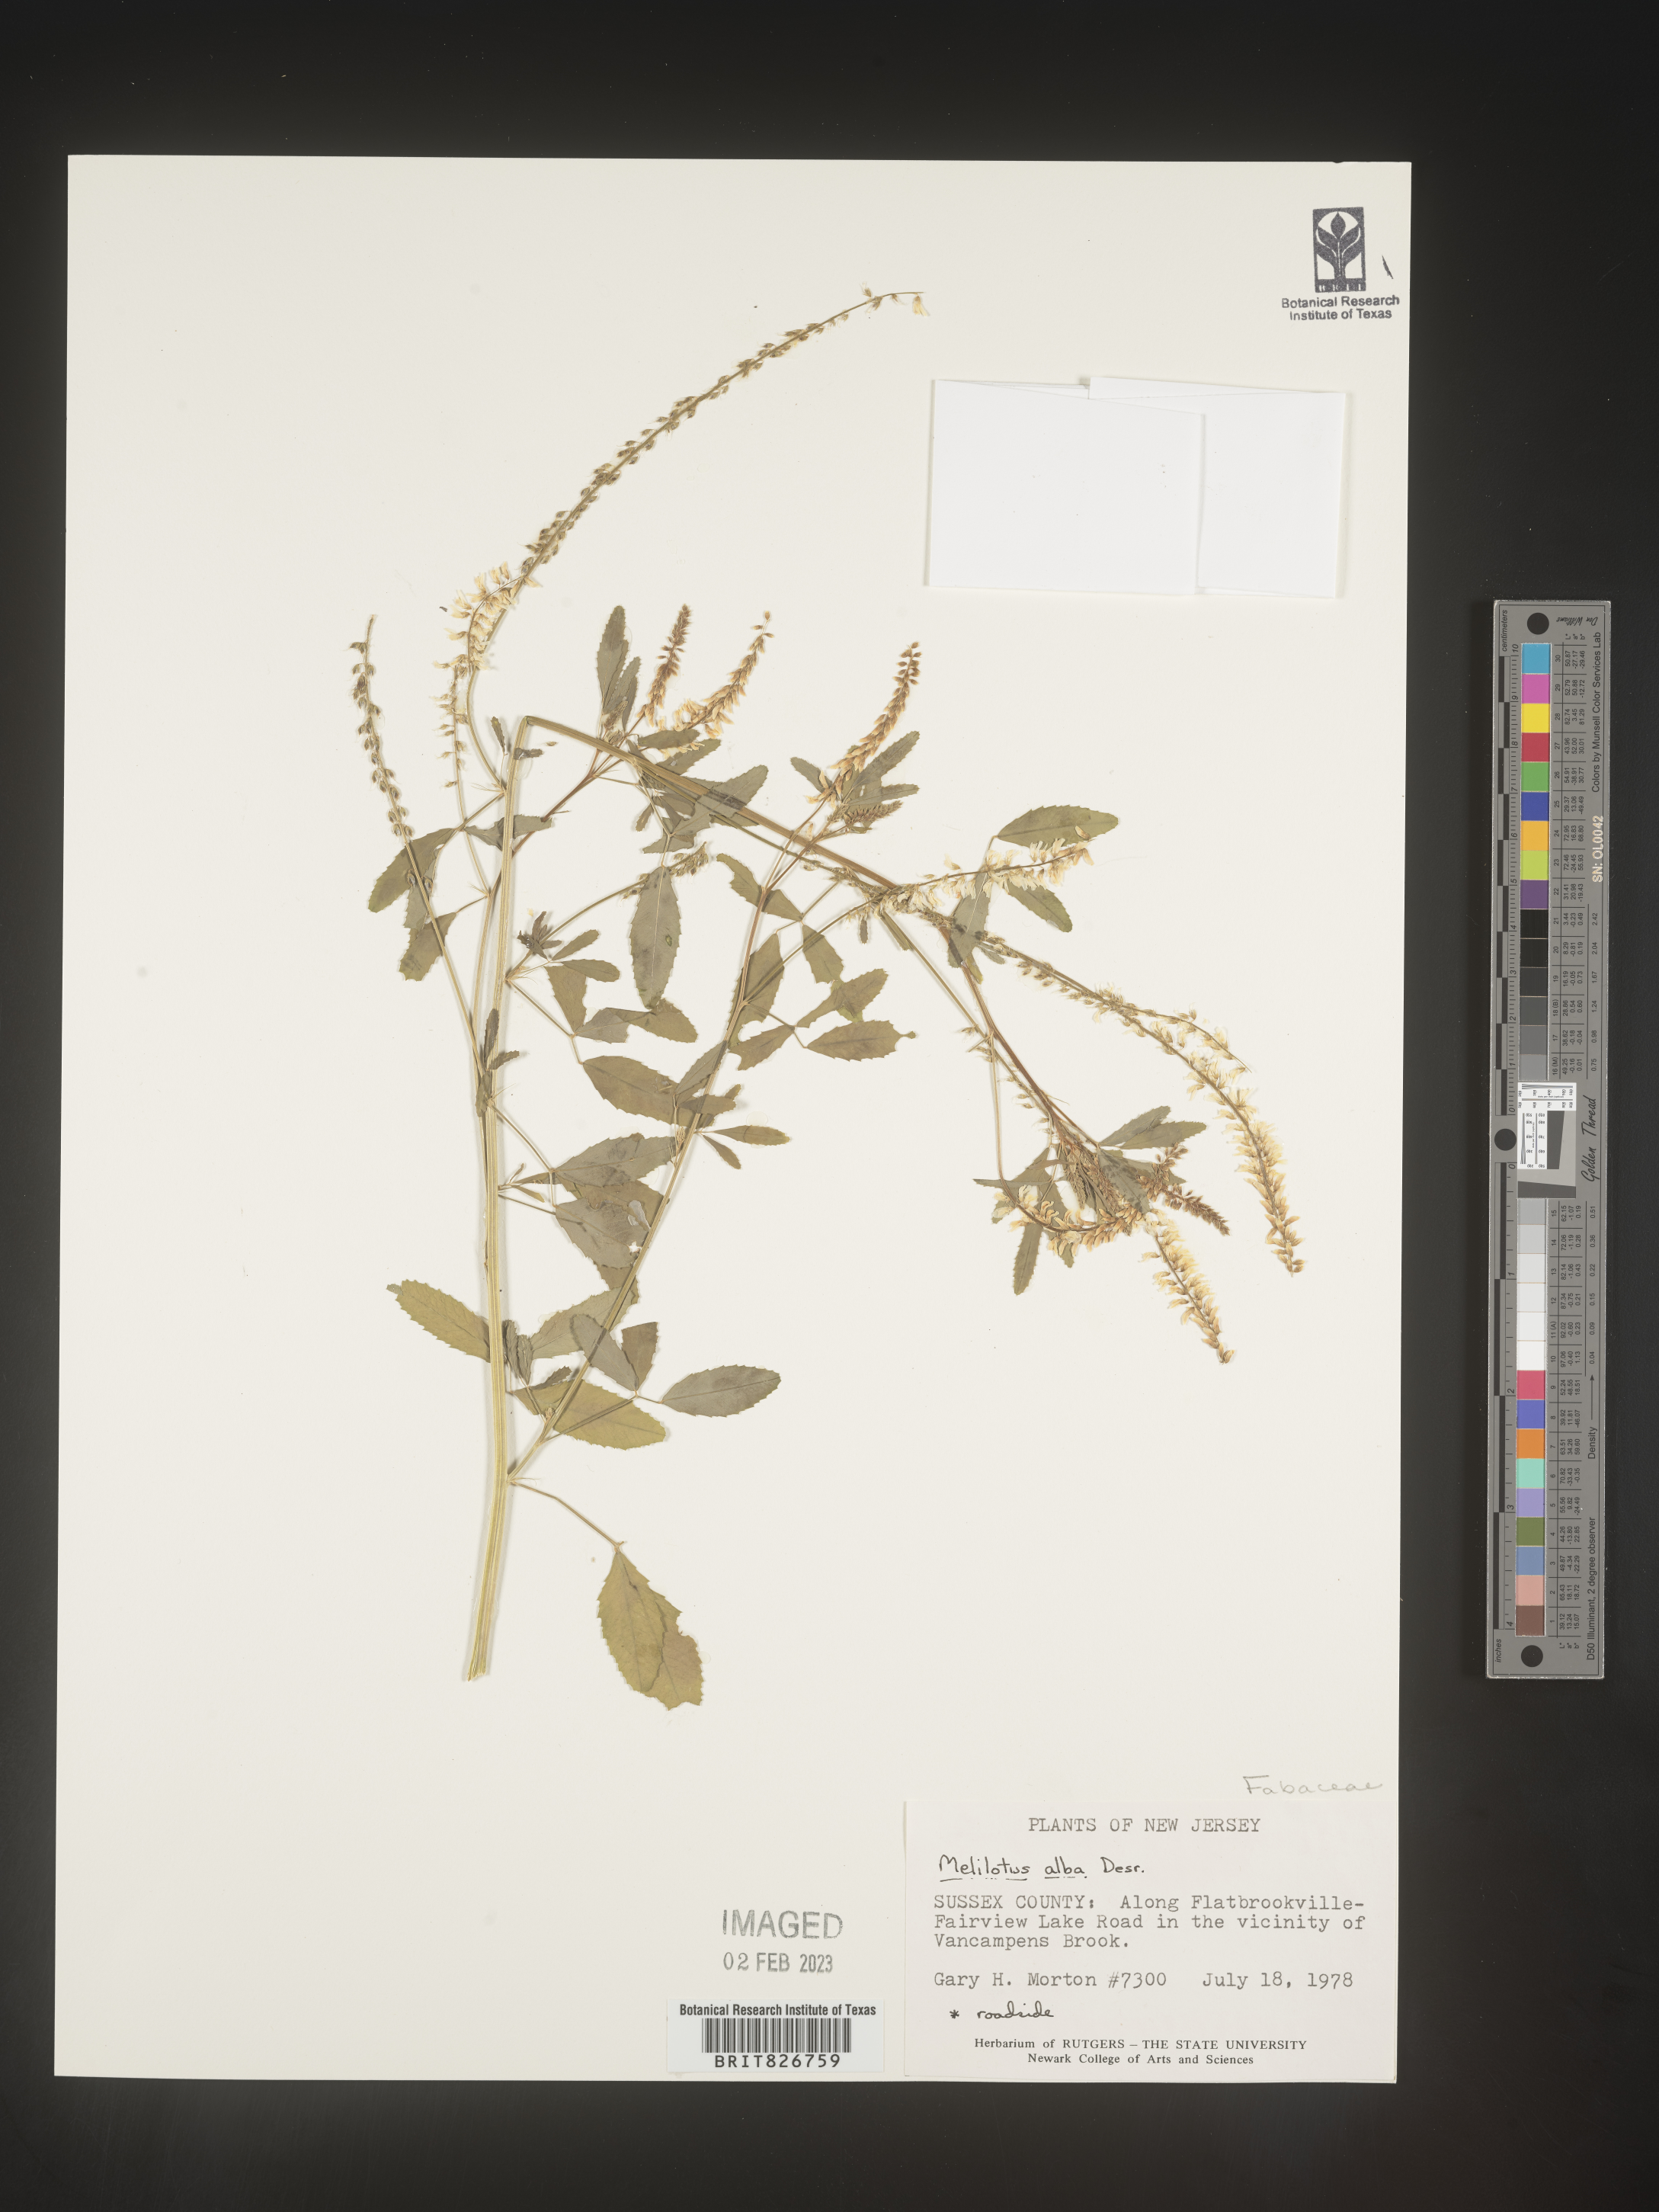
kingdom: Plantae
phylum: Tracheophyta
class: Magnoliopsida
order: Fabales
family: Fabaceae
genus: Melilotus
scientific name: Melilotus albus
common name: White melilot
